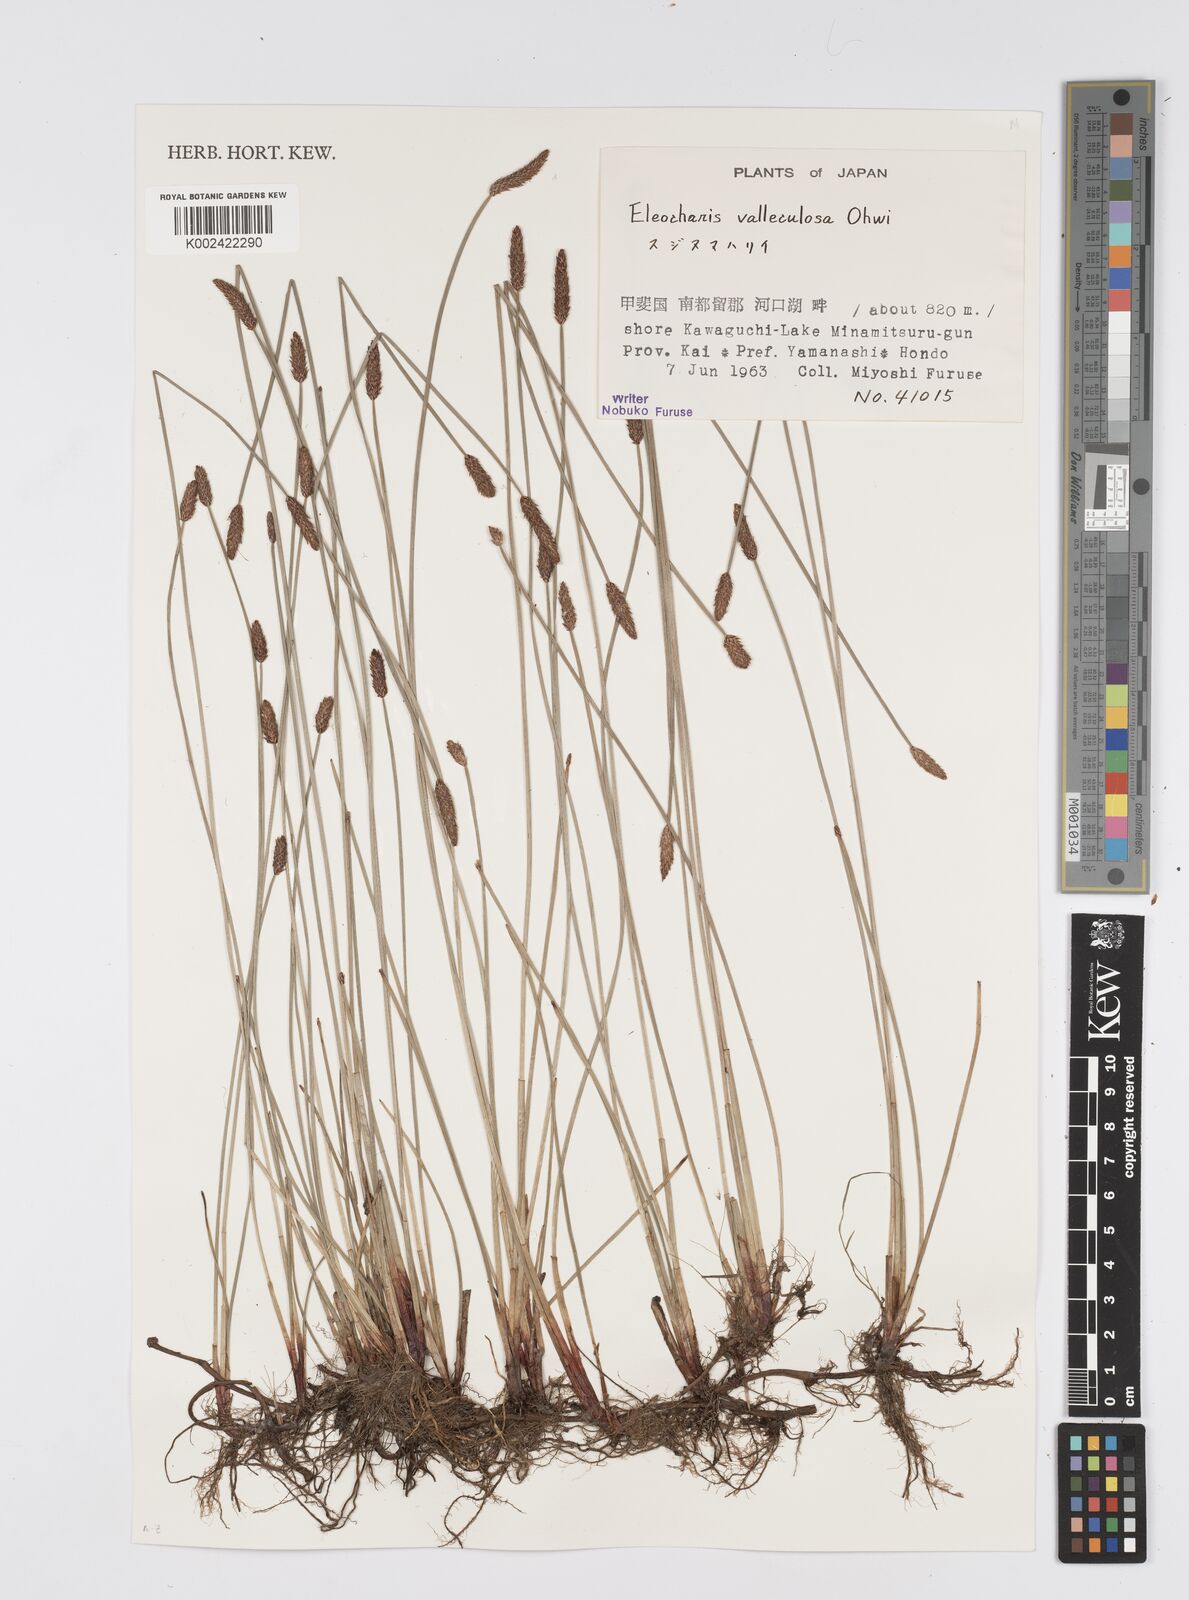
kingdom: Plantae
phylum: Tracheophyta
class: Liliopsida
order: Poales
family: Cyperaceae
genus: Eleocharis
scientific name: Eleocharis valleculosa
